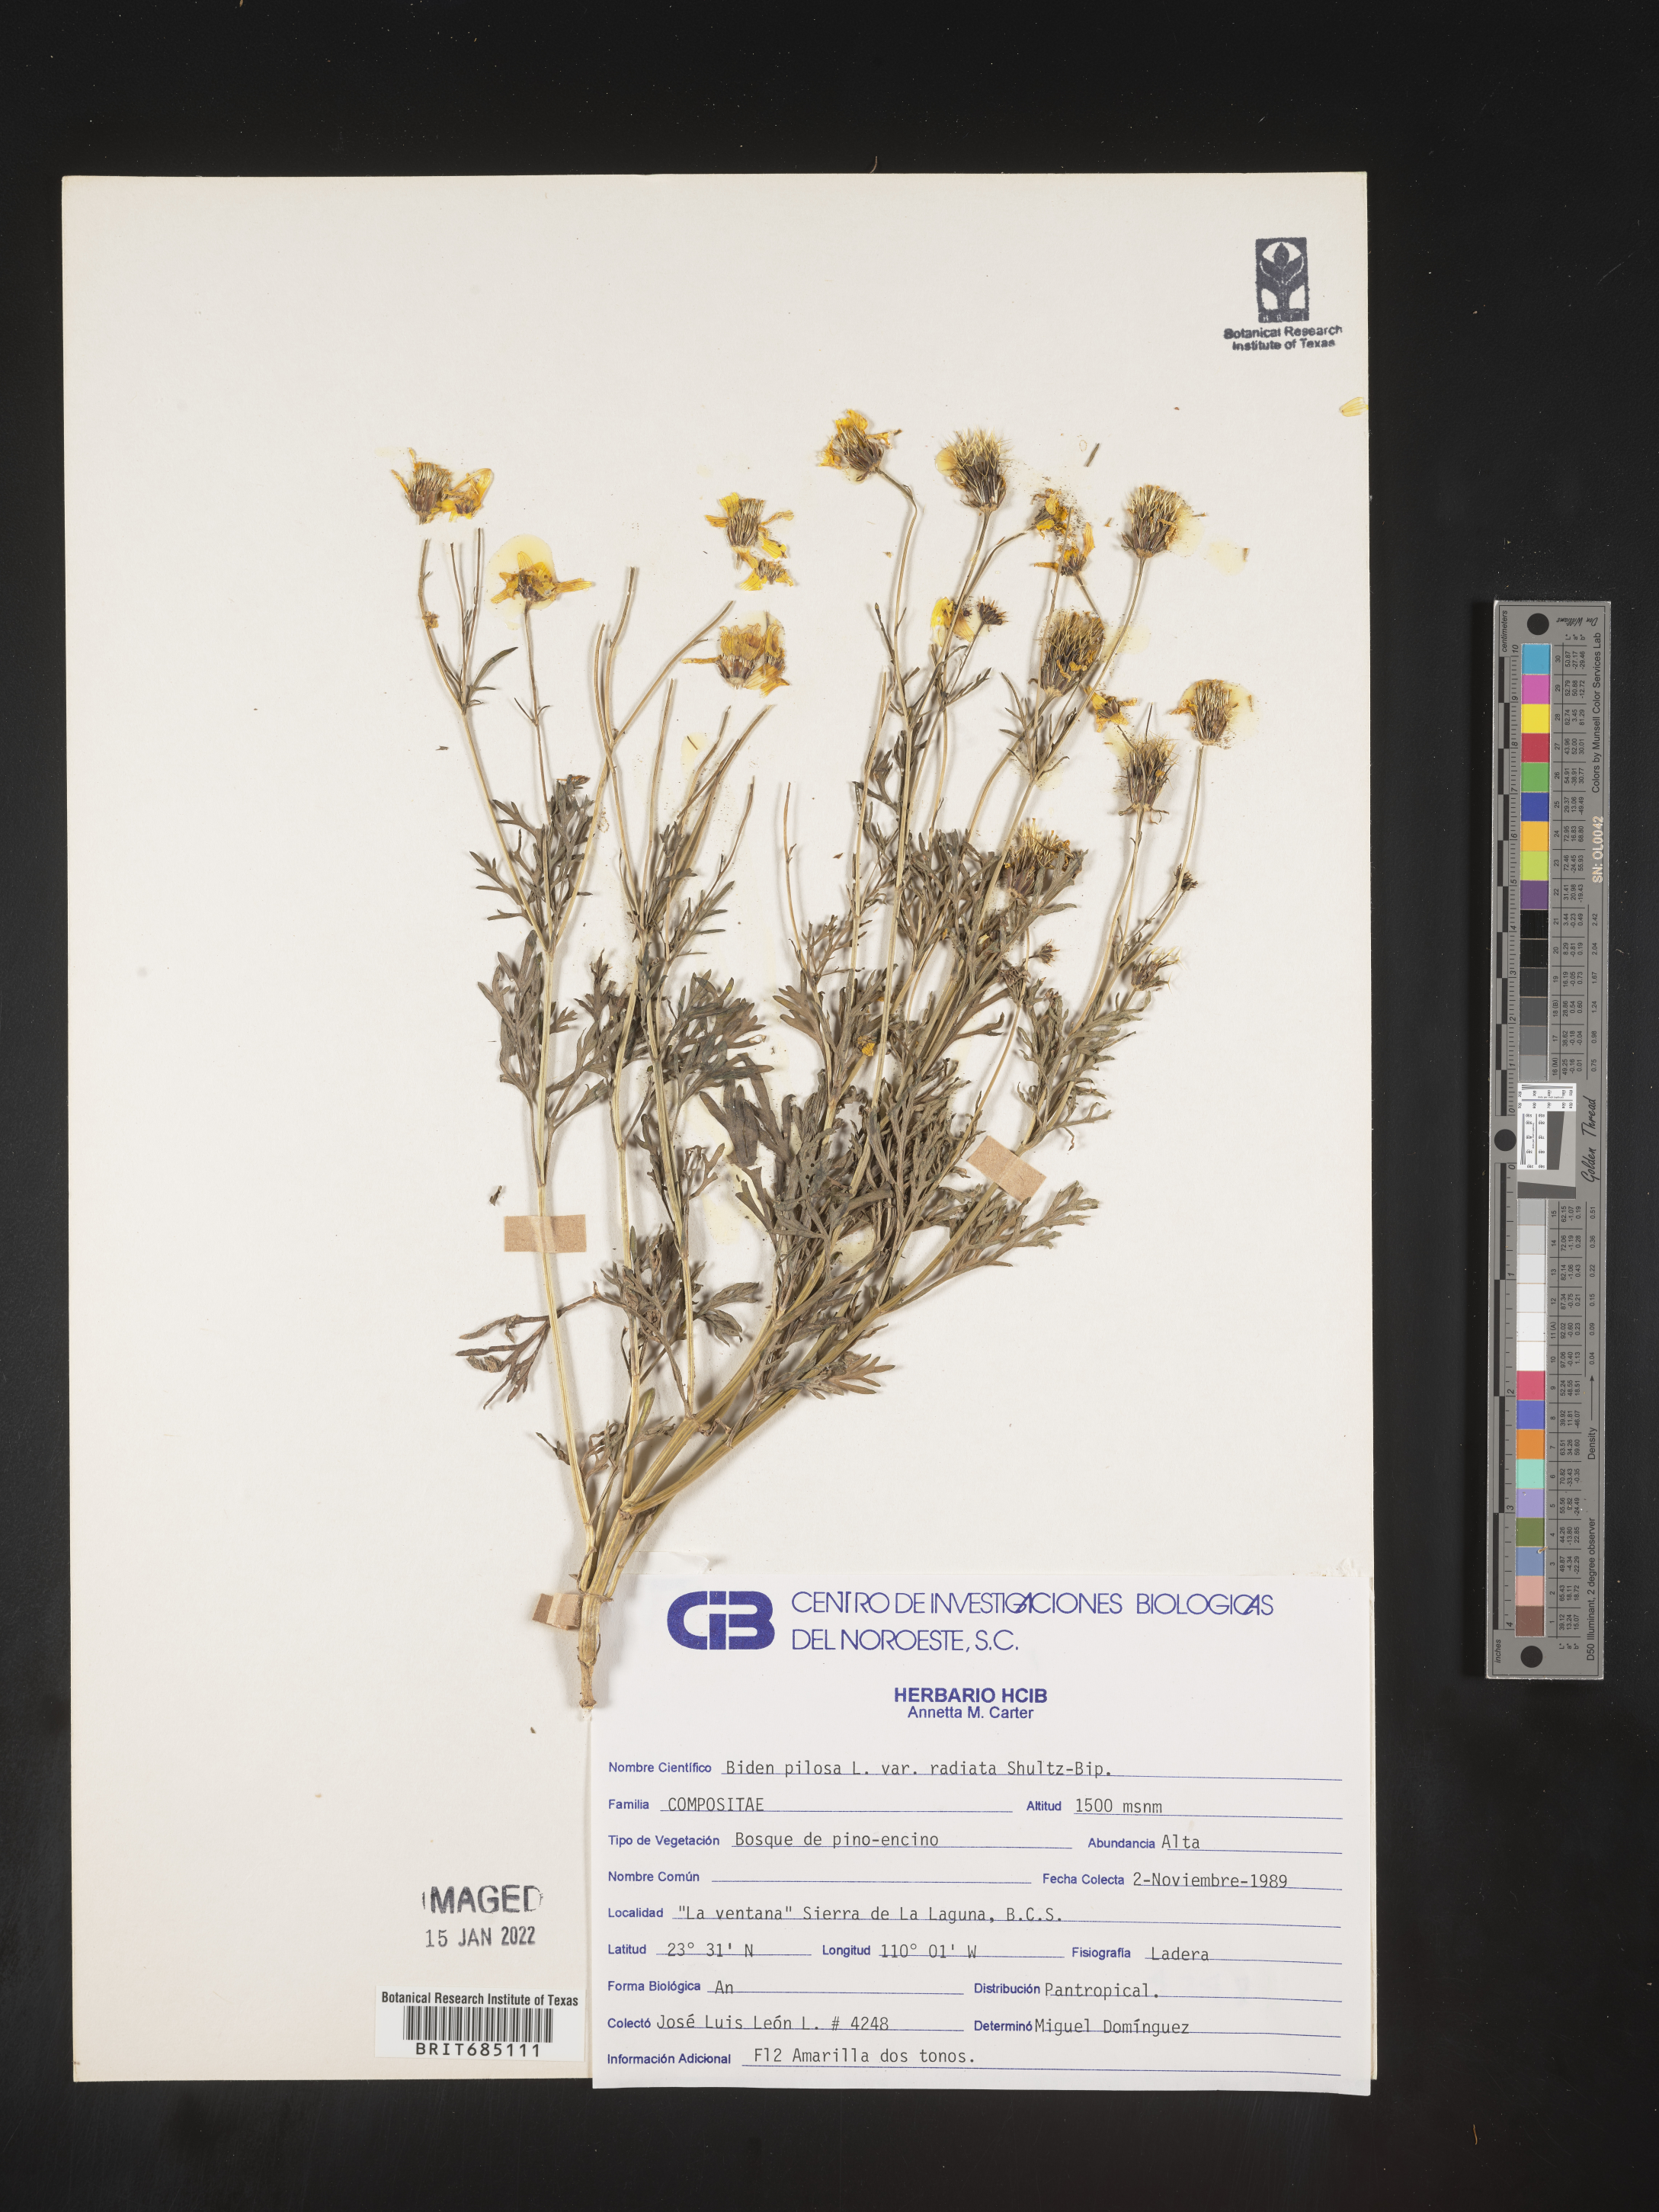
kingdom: Plantae
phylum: Tracheophyta
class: Magnoliopsida
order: Asterales
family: Asteraceae
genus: Bidens
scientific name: Bidens
